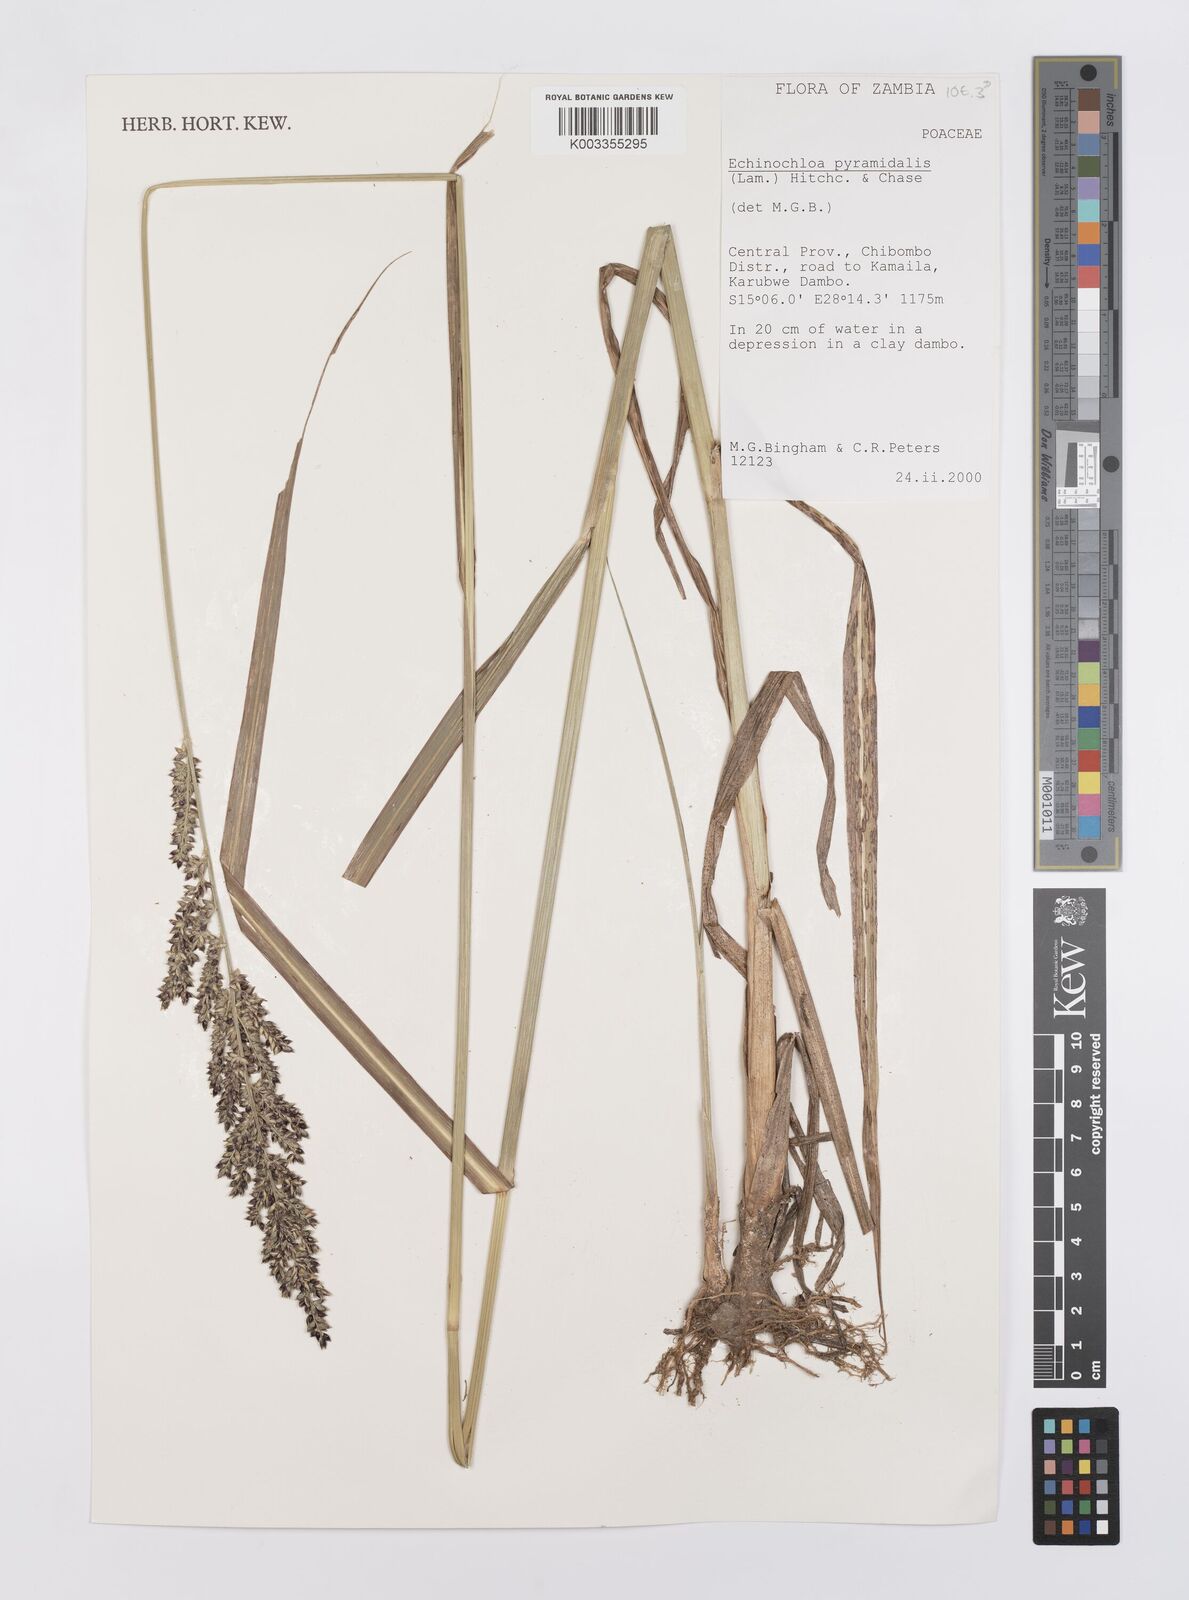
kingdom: Plantae
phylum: Tracheophyta
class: Liliopsida
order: Poales
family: Poaceae
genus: Echinochloa
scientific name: Echinochloa pyramidalis
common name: Antelope grass
